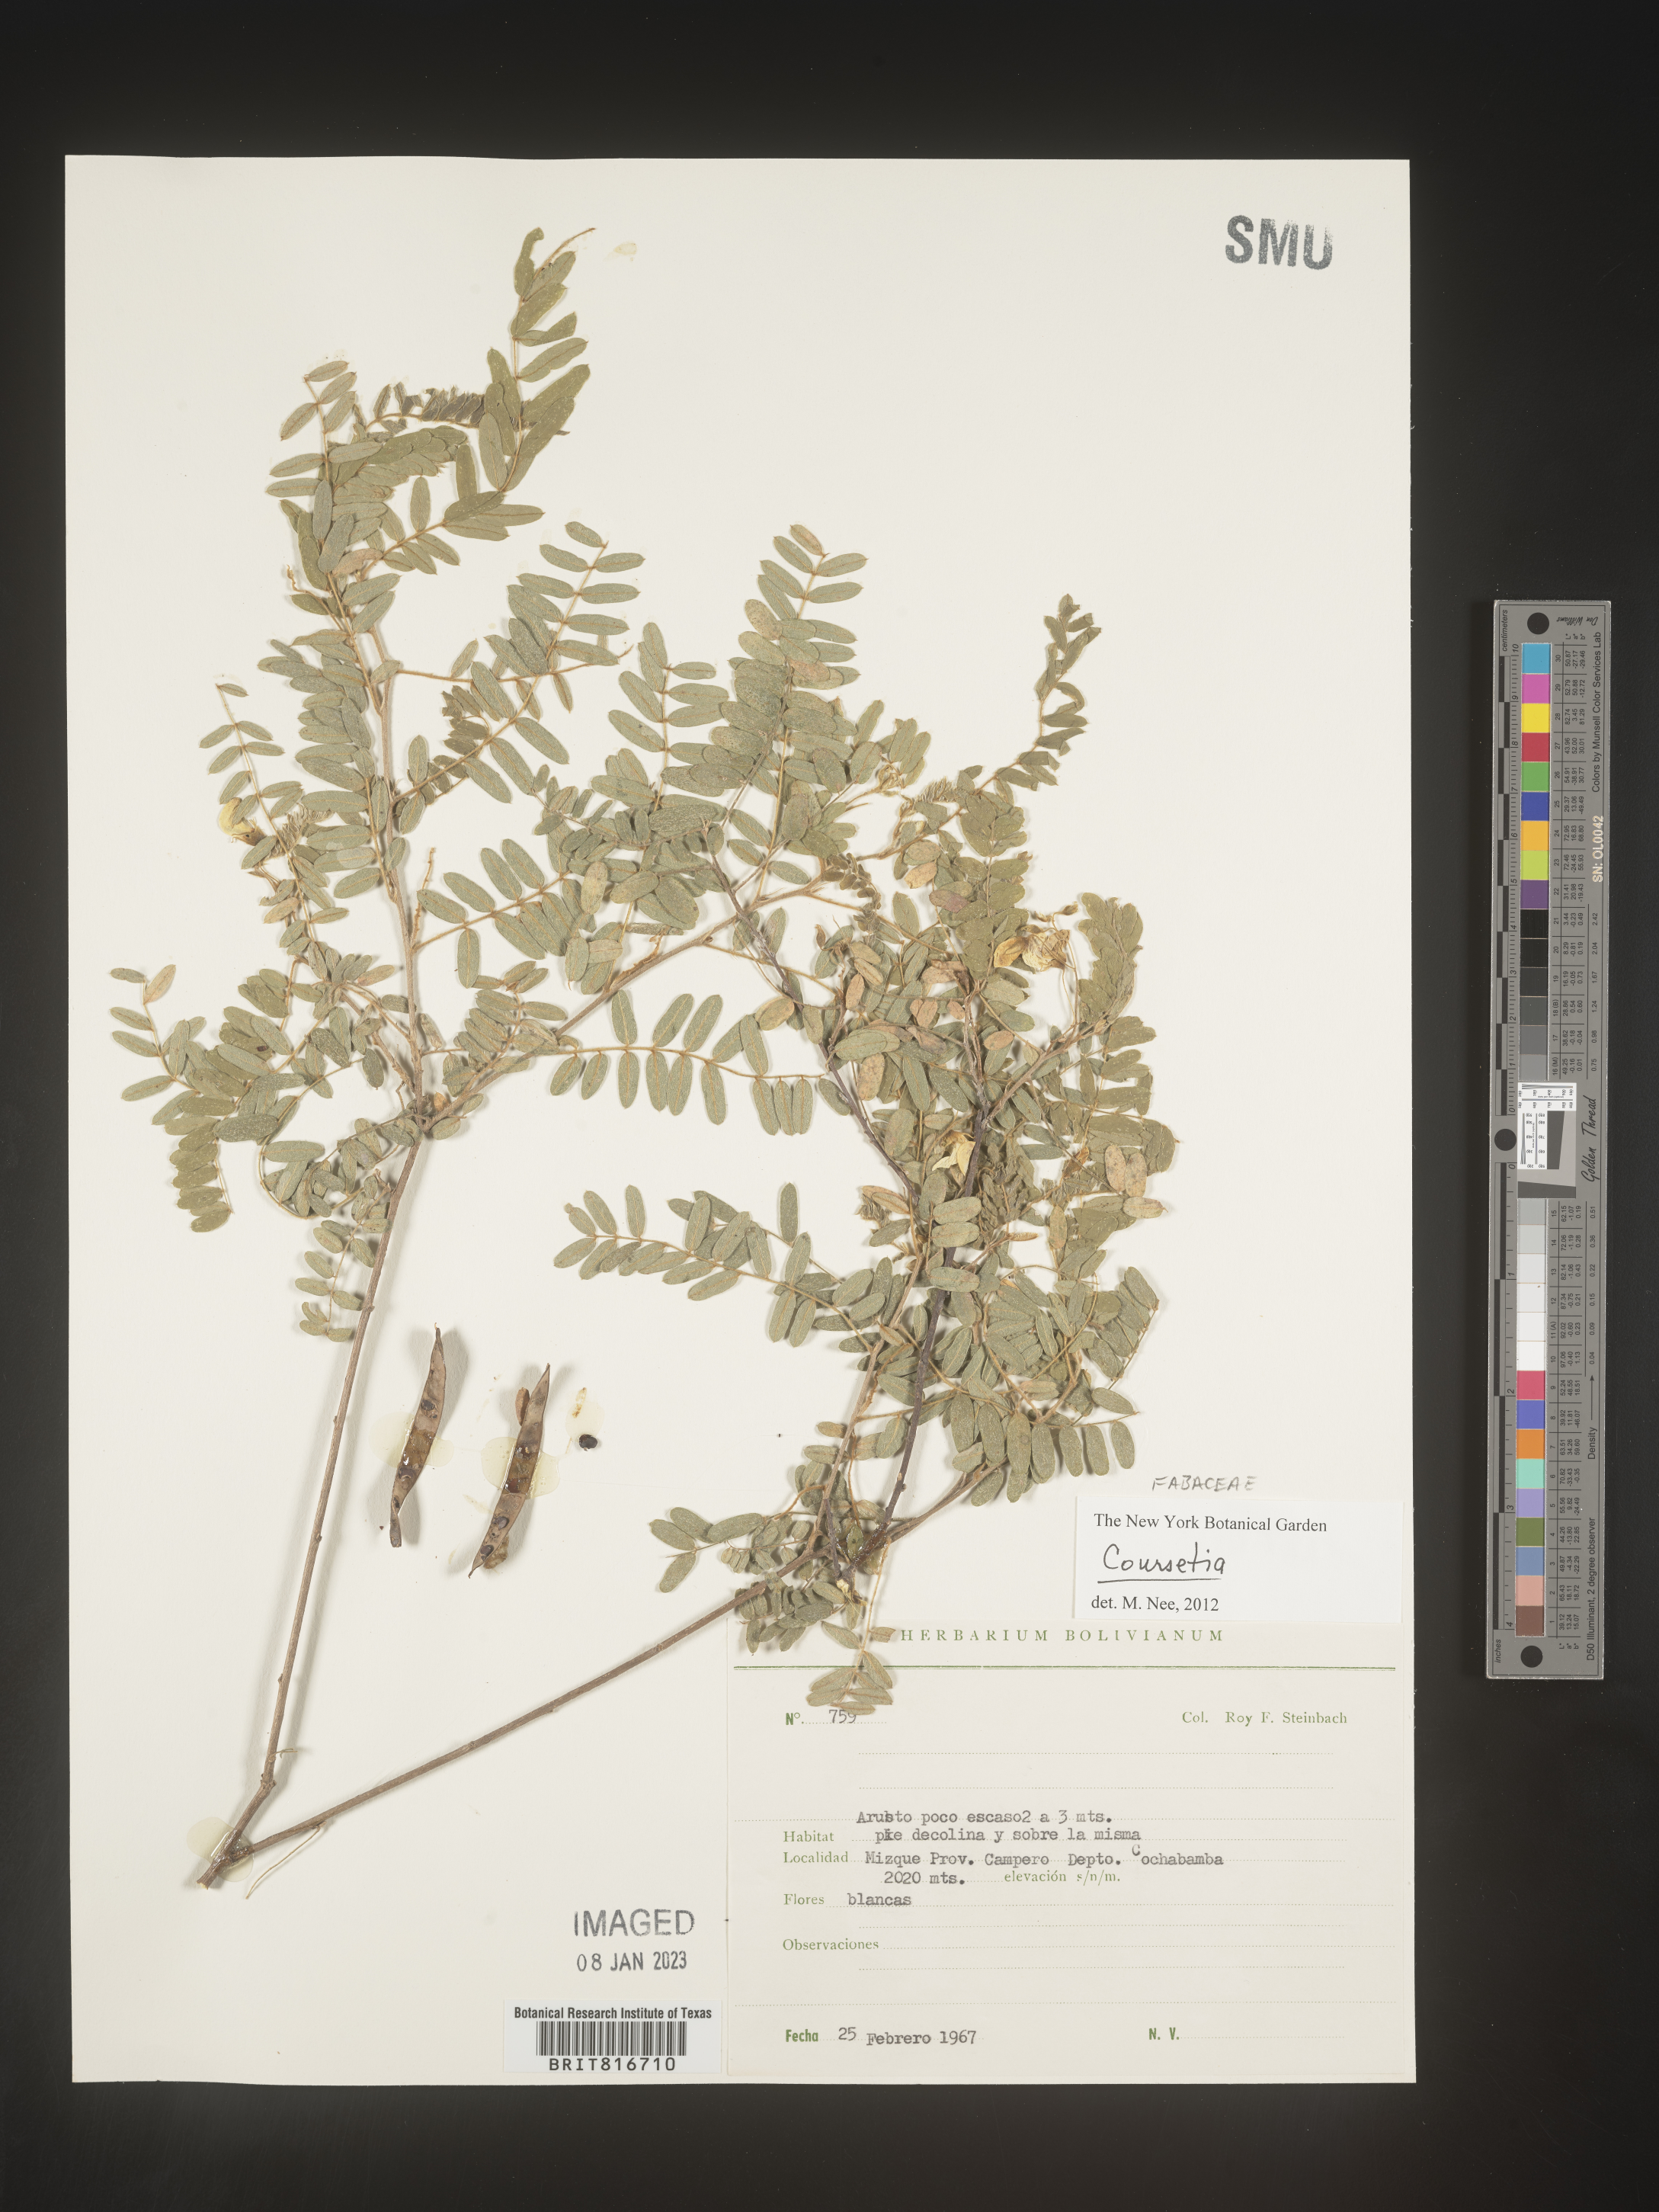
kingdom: Plantae
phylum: Tracheophyta
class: Magnoliopsida
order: Fabales
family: Fabaceae
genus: Coursetia
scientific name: Coursetia
